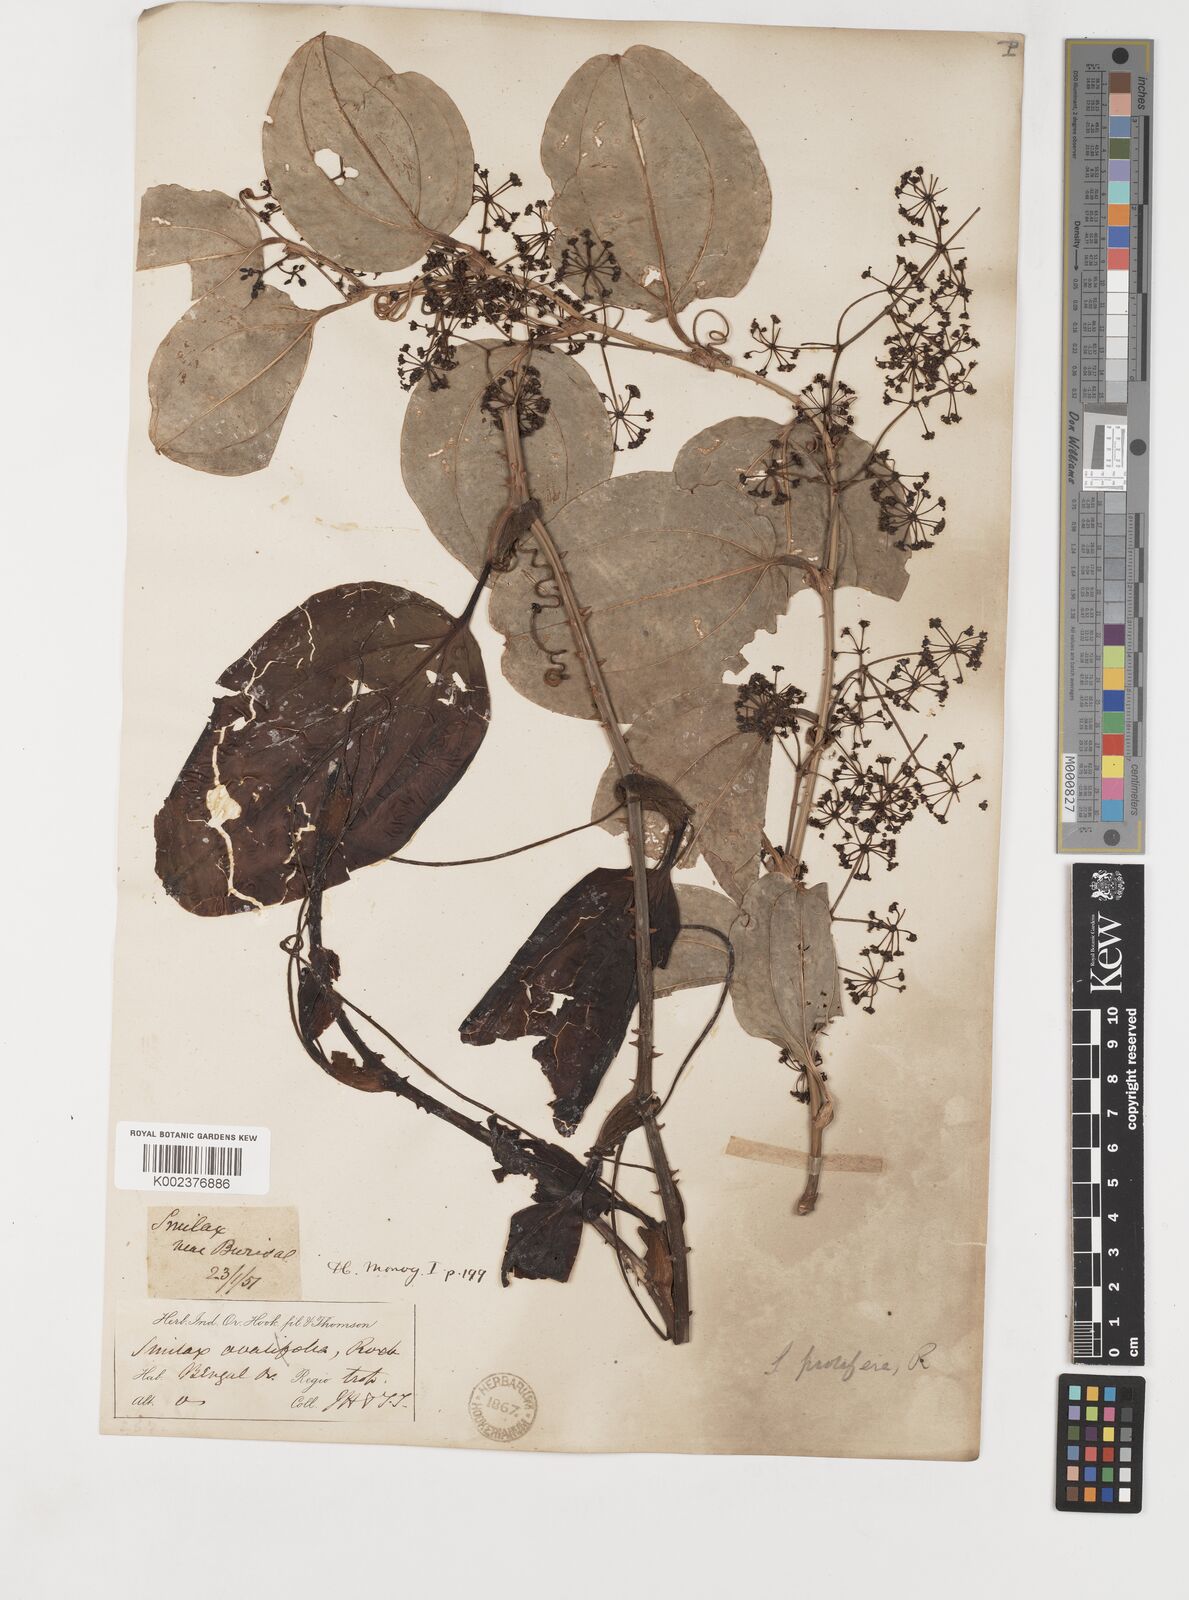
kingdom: Plantae
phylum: Tracheophyta
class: Liliopsida
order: Liliales
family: Smilacaceae
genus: Smilax
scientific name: Smilax prolifera
